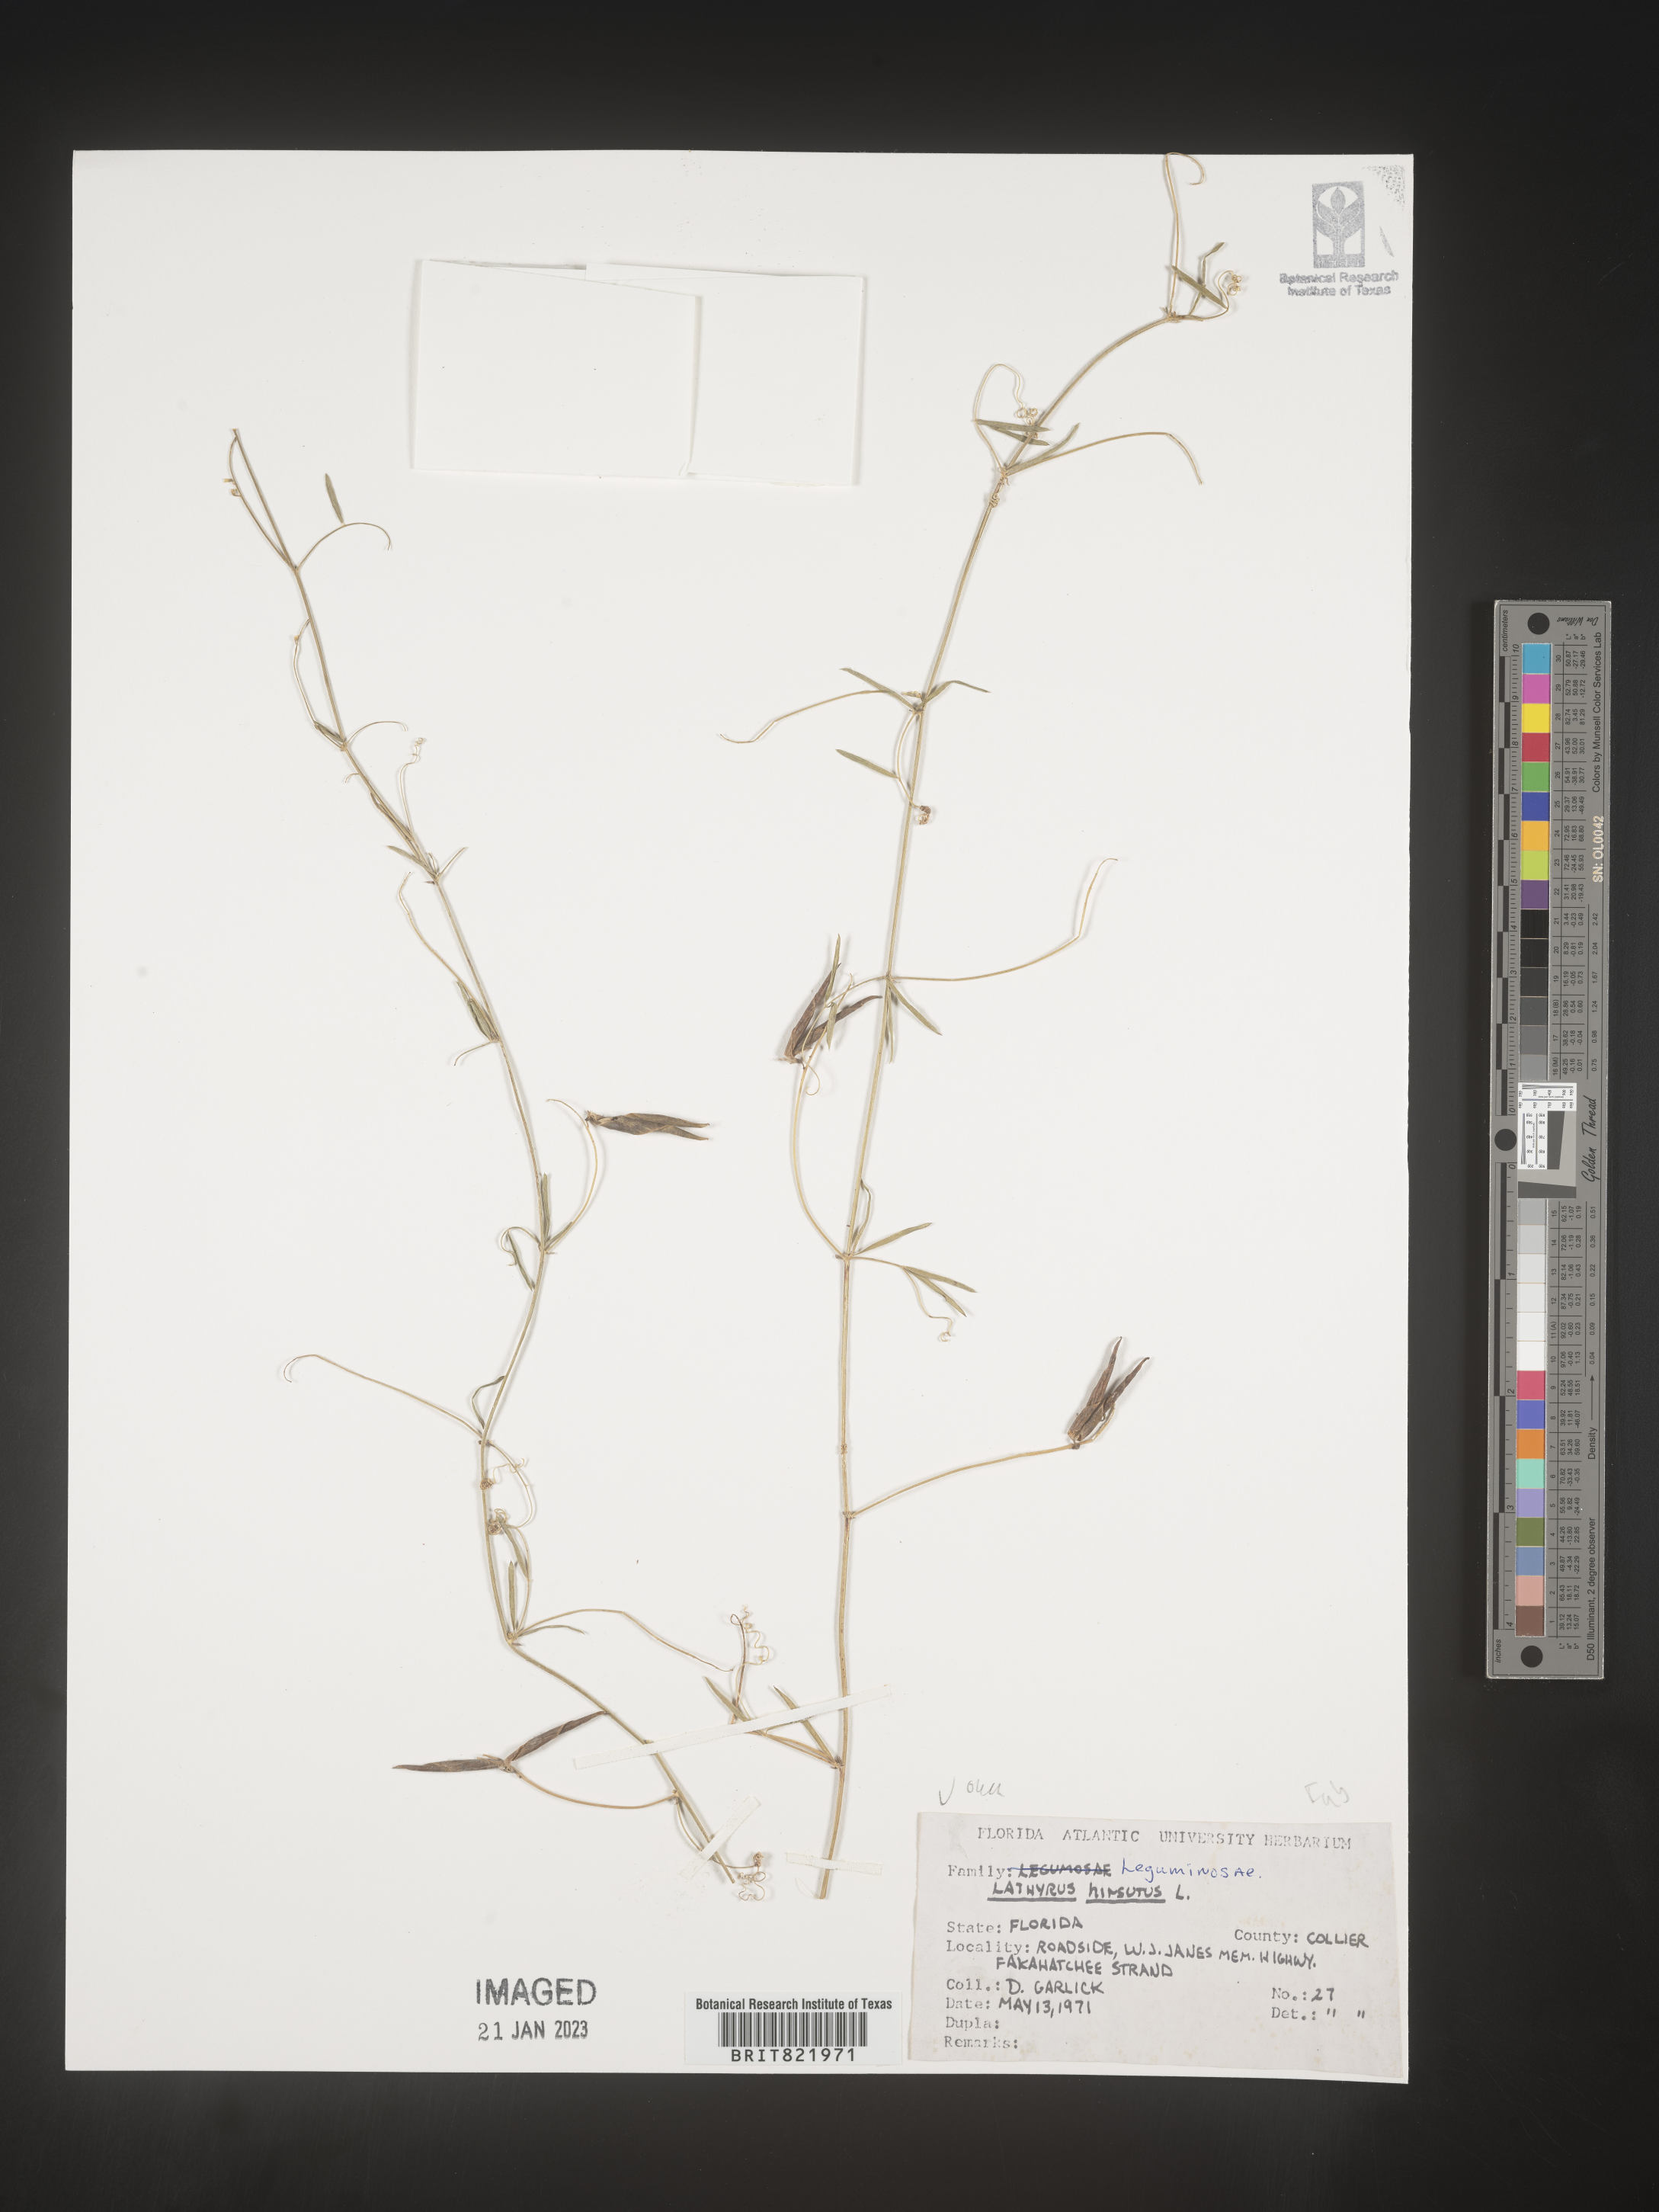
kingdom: Plantae
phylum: Tracheophyta
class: Magnoliopsida
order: Fabales
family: Fabaceae
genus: Lathyrus
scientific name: Lathyrus hirsutus
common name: Hairy vetchling
